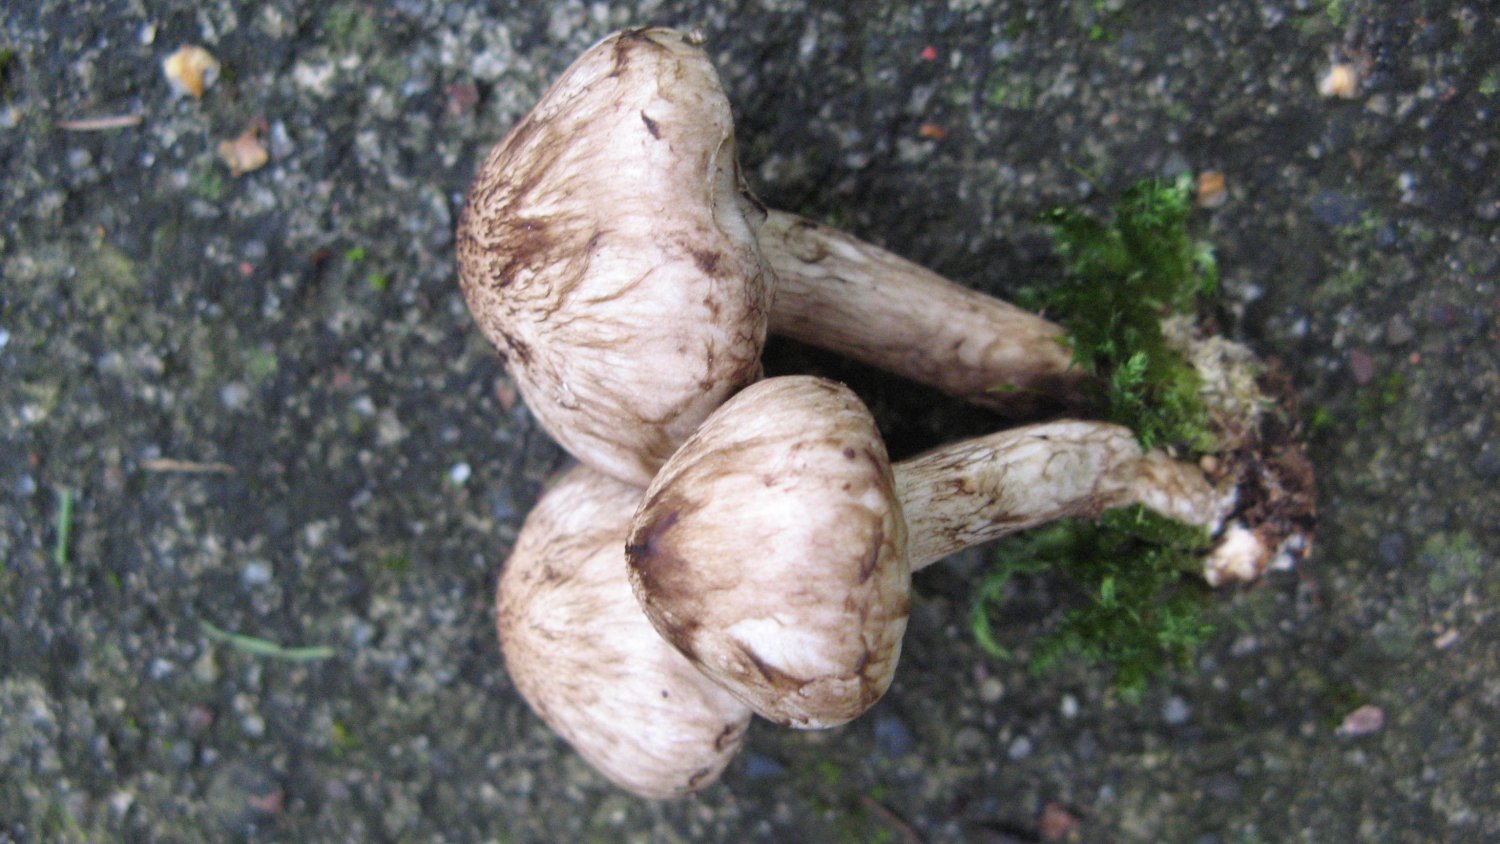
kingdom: Fungi
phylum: Basidiomycota
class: Agaricomycetes
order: Agaricales
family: Psathyrellaceae
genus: Psathyrella
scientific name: Psathyrella cotonea
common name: skællet mørkhat
